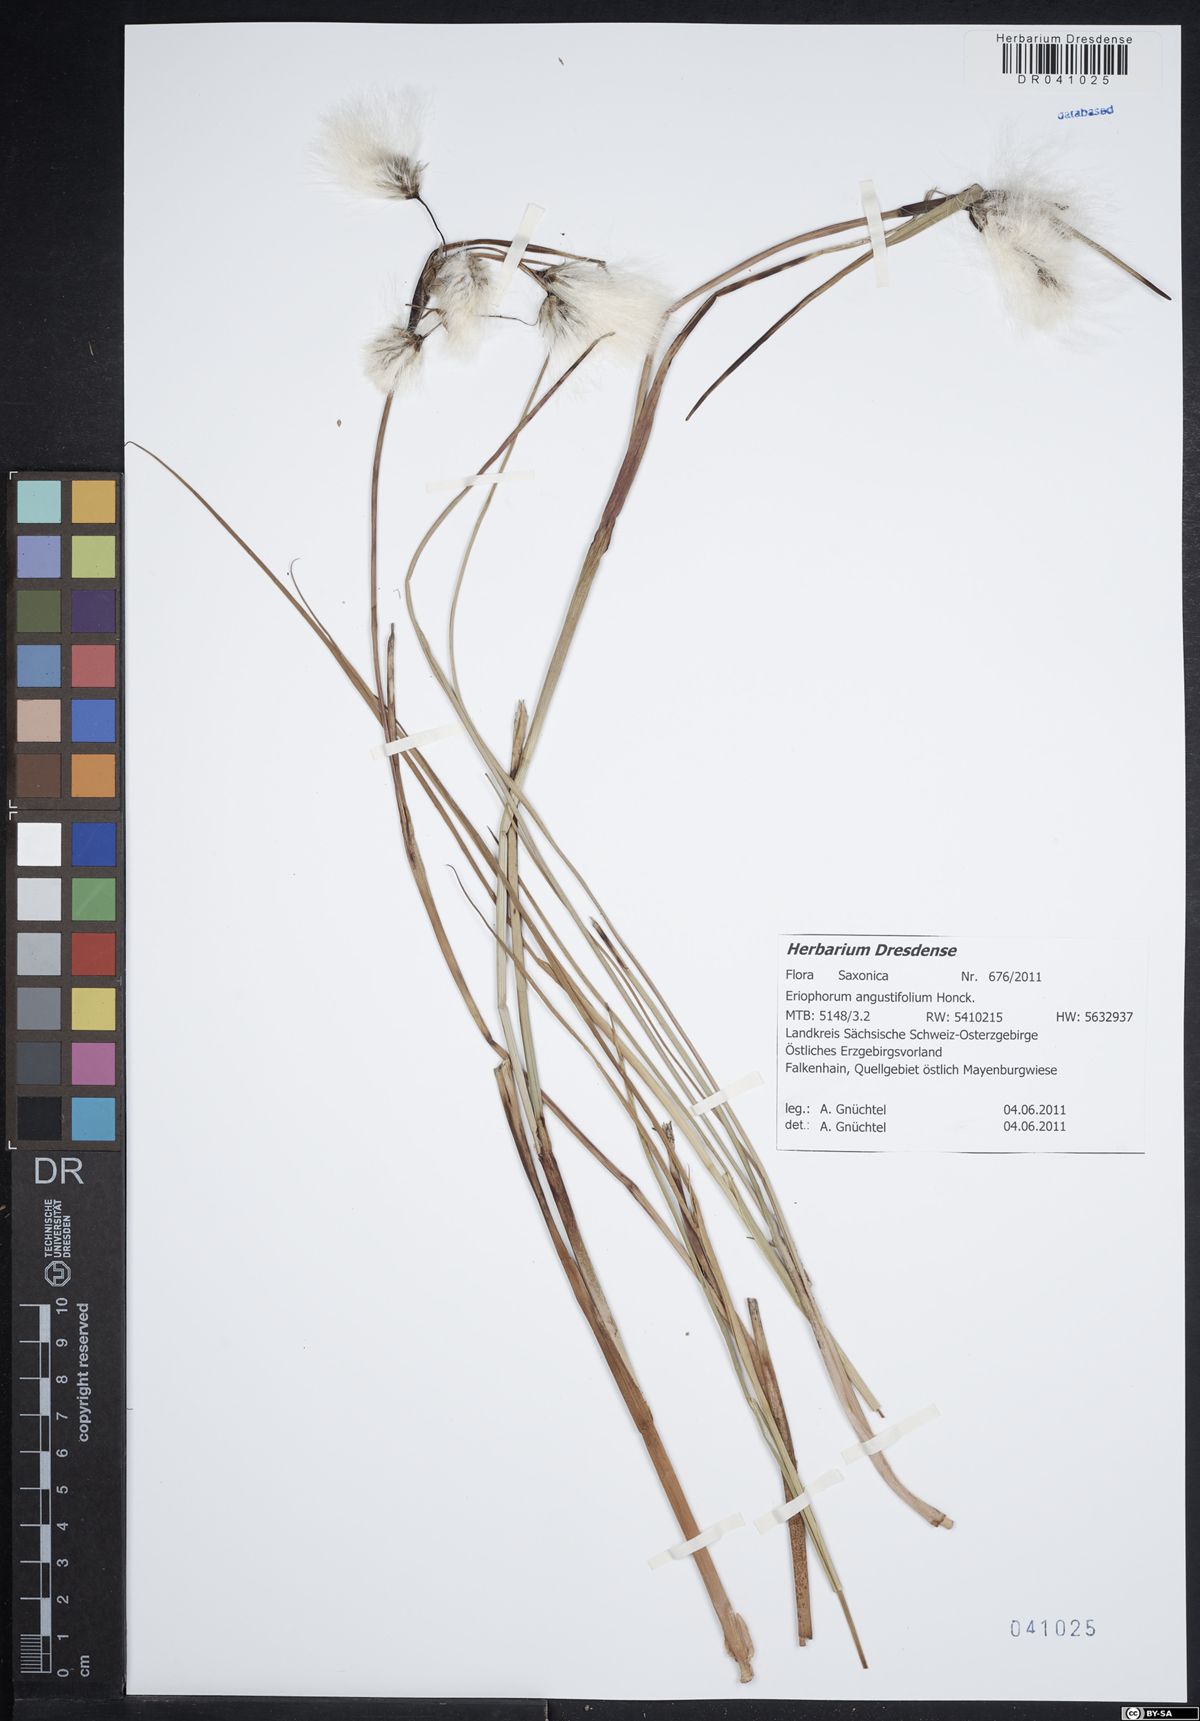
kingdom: Plantae
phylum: Tracheophyta
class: Liliopsida
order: Poales
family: Cyperaceae
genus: Eriophorum
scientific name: Eriophorum angustifolium
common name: Common cottongrass
